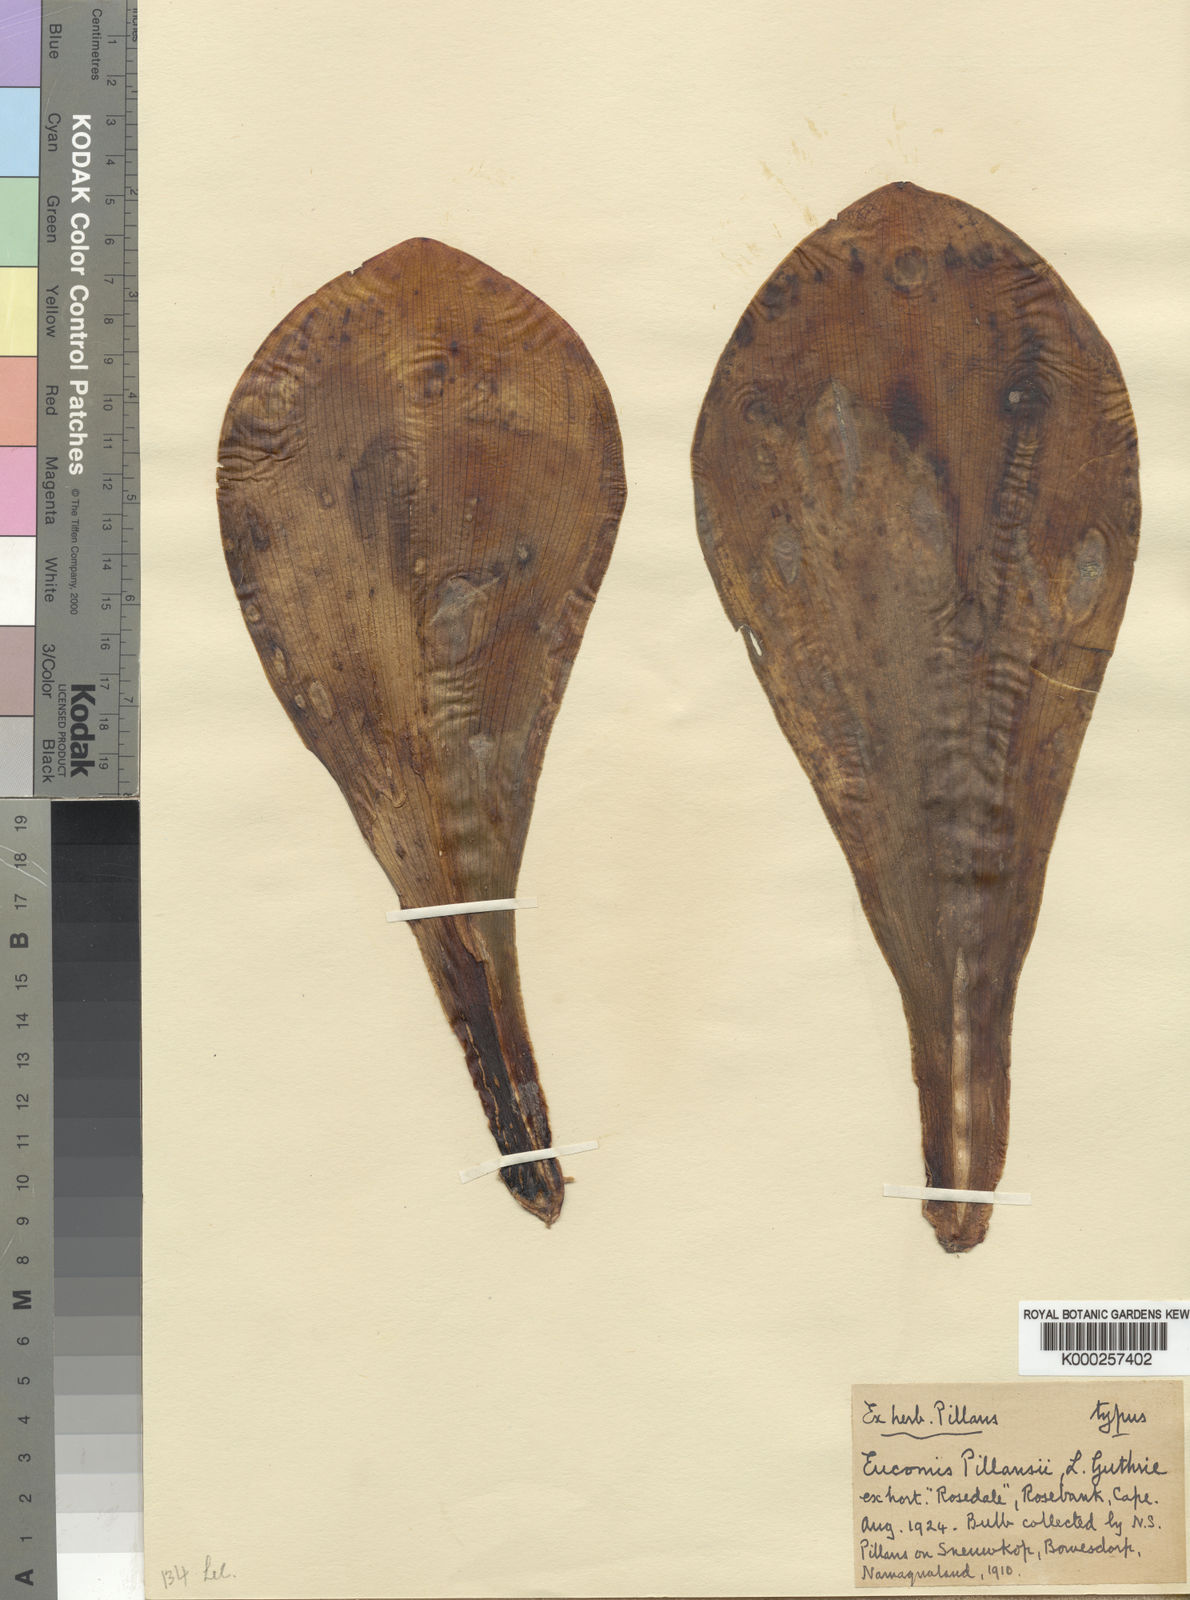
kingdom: Plantae
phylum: Tracheophyta
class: Liliopsida
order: Asparagales
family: Asparagaceae
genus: Eucomis
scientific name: Eucomis regia
